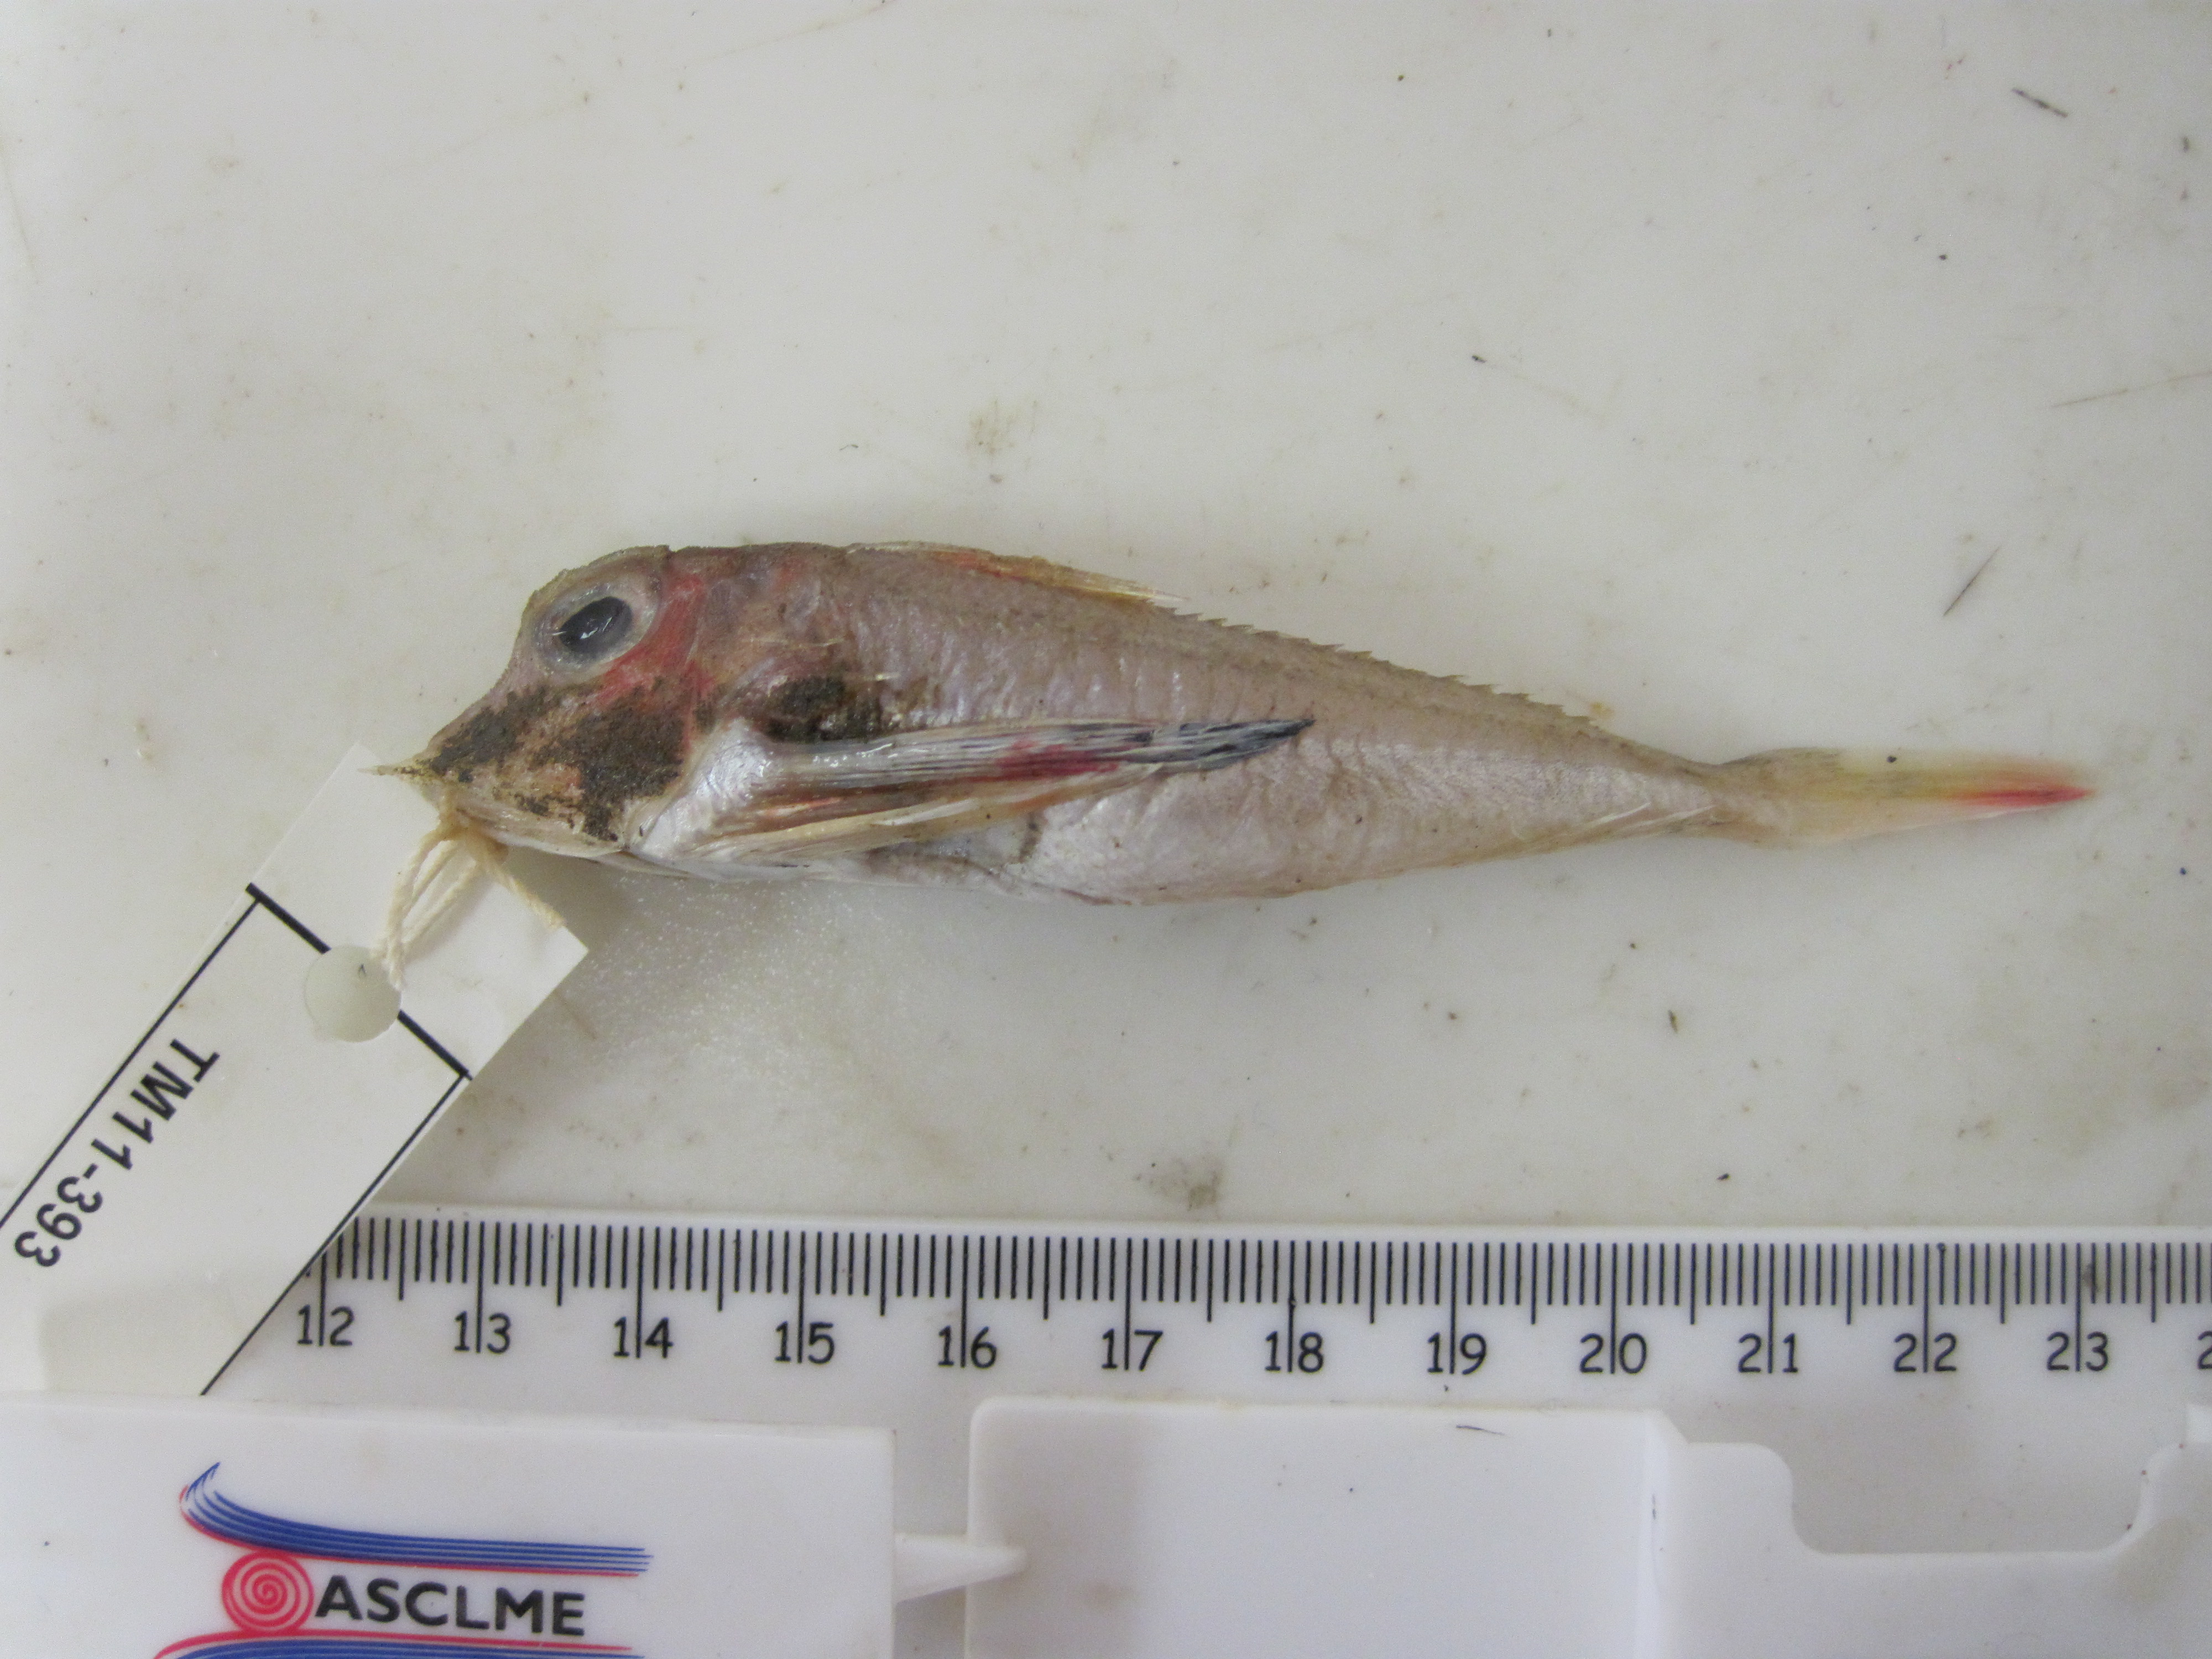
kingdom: Animalia
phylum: Chordata
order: Scorpaeniformes
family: Triglidae
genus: Lepidotrigla
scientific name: Lepidotrigla faurei
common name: Prickly gurnard
